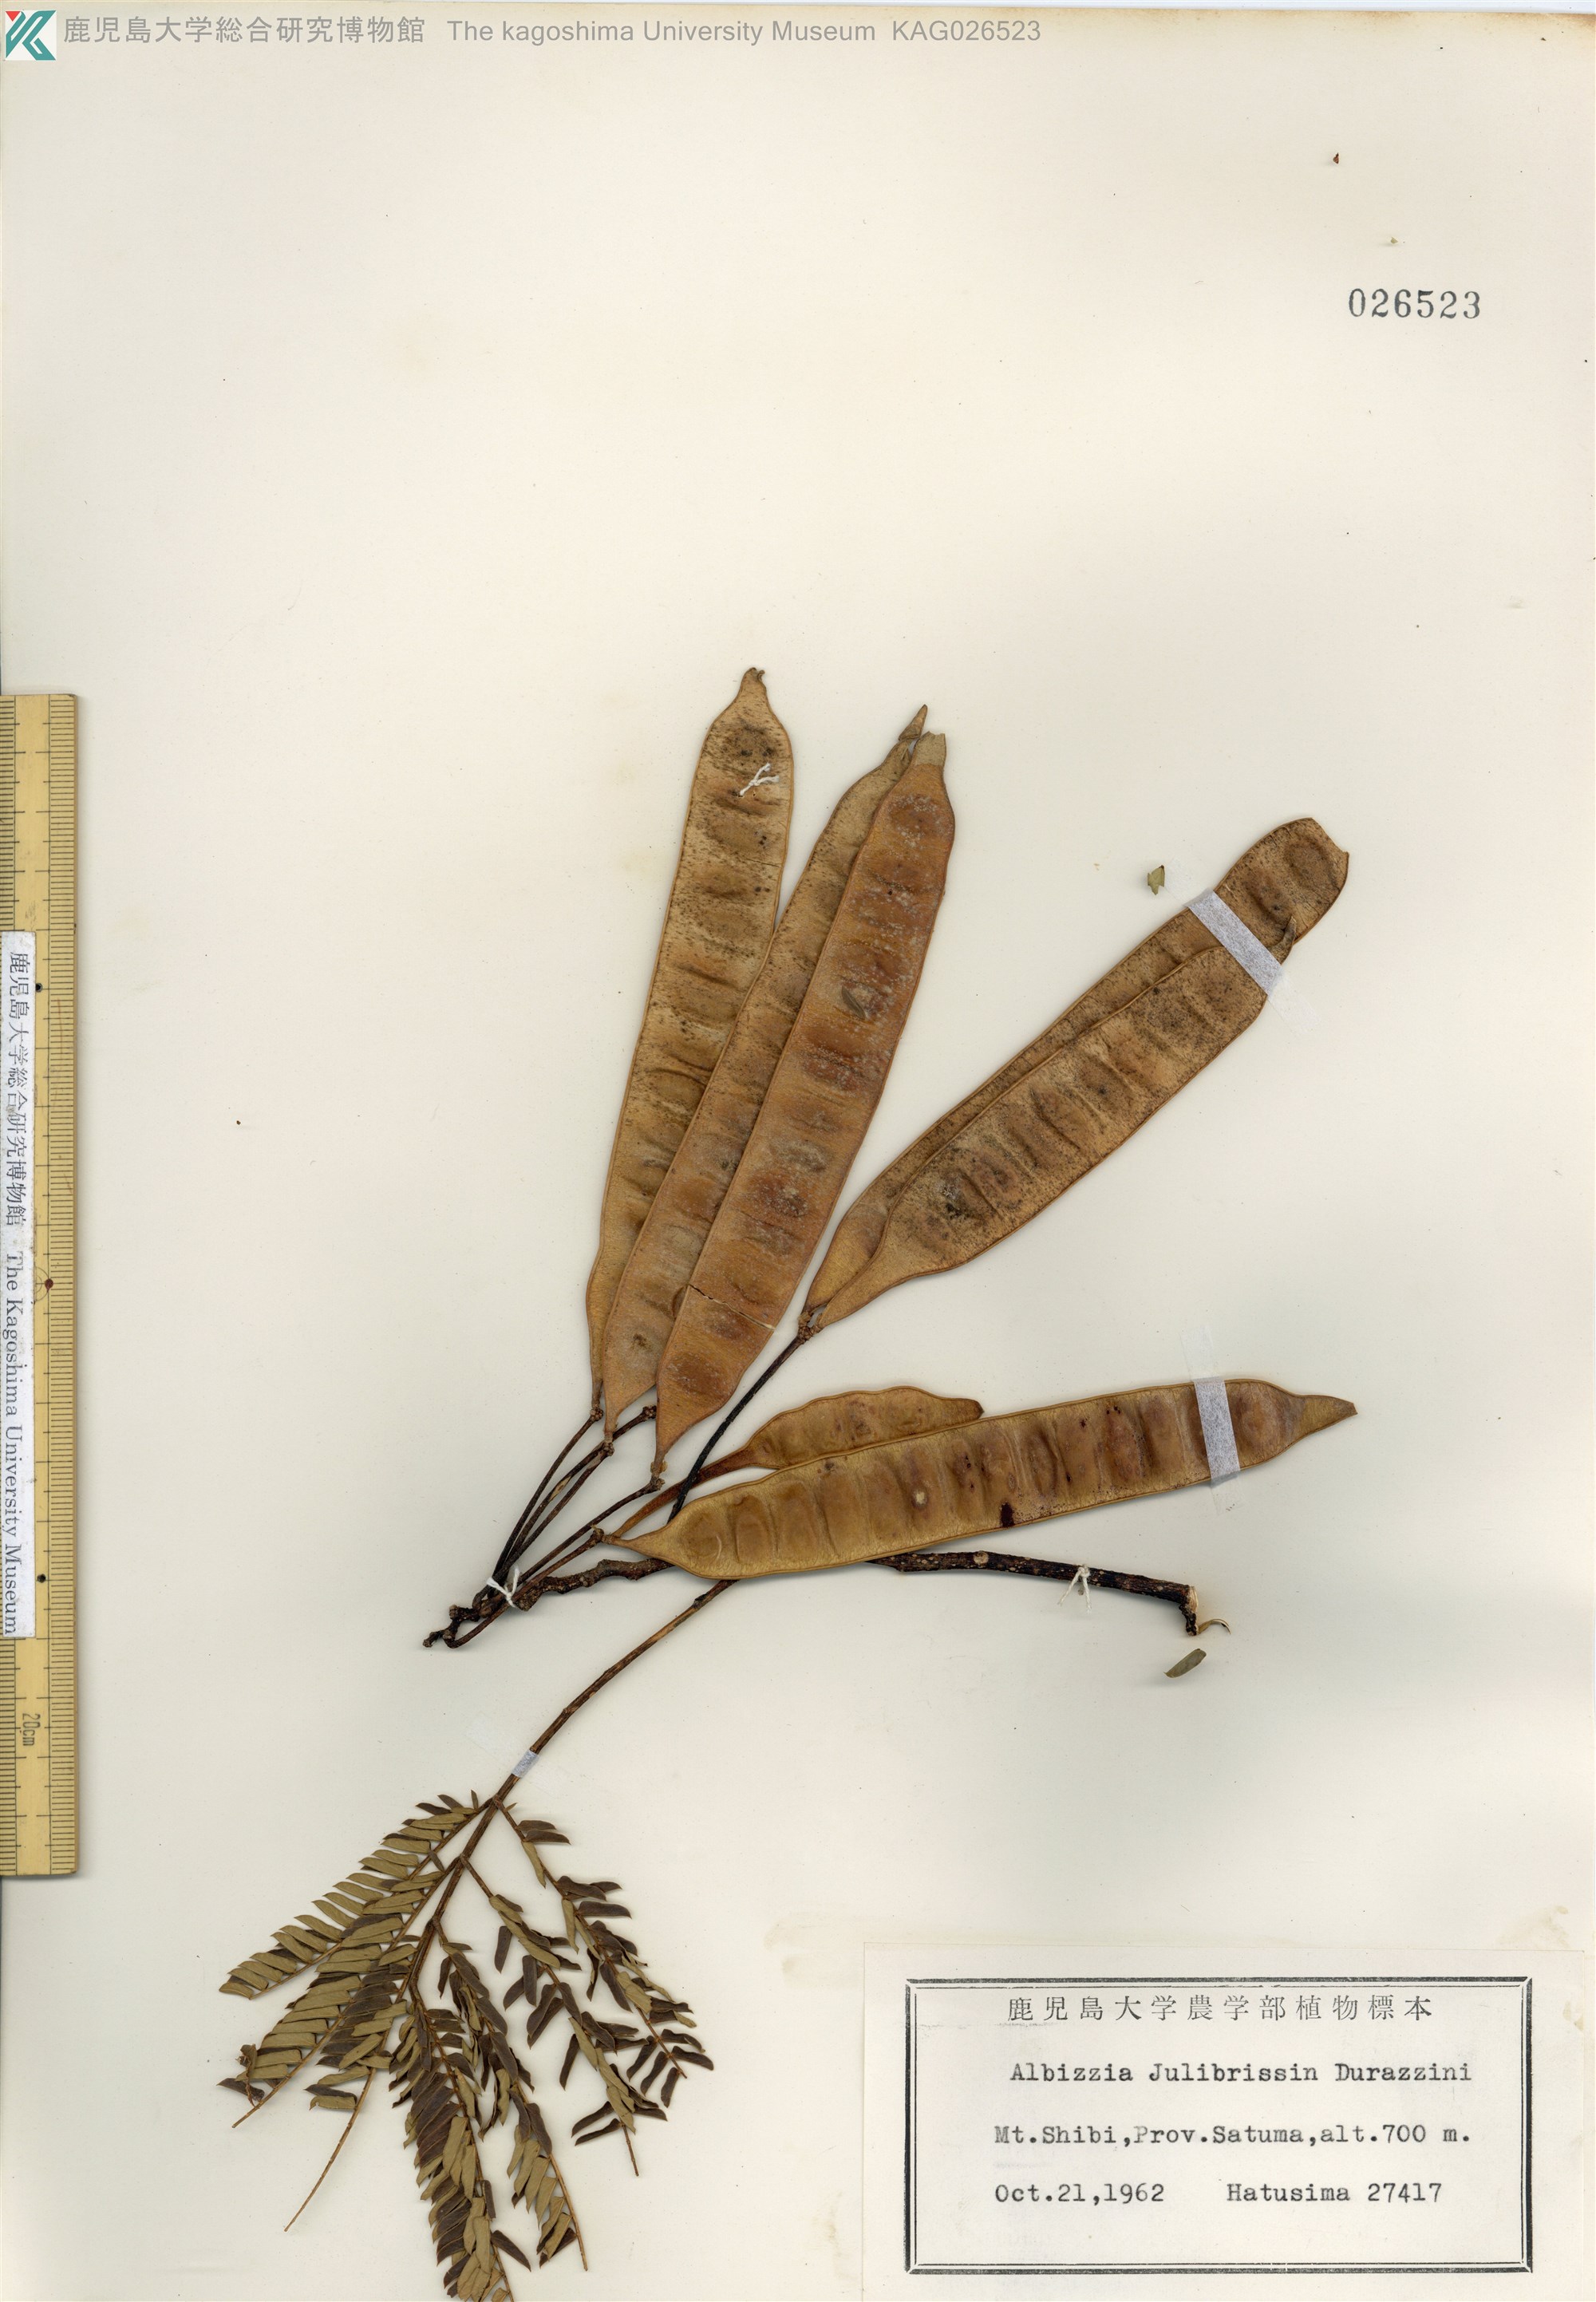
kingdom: Plantae
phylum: Tracheophyta
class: Magnoliopsida
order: Fabales
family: Fabaceae
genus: Albizia
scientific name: Albizia julibrissin
